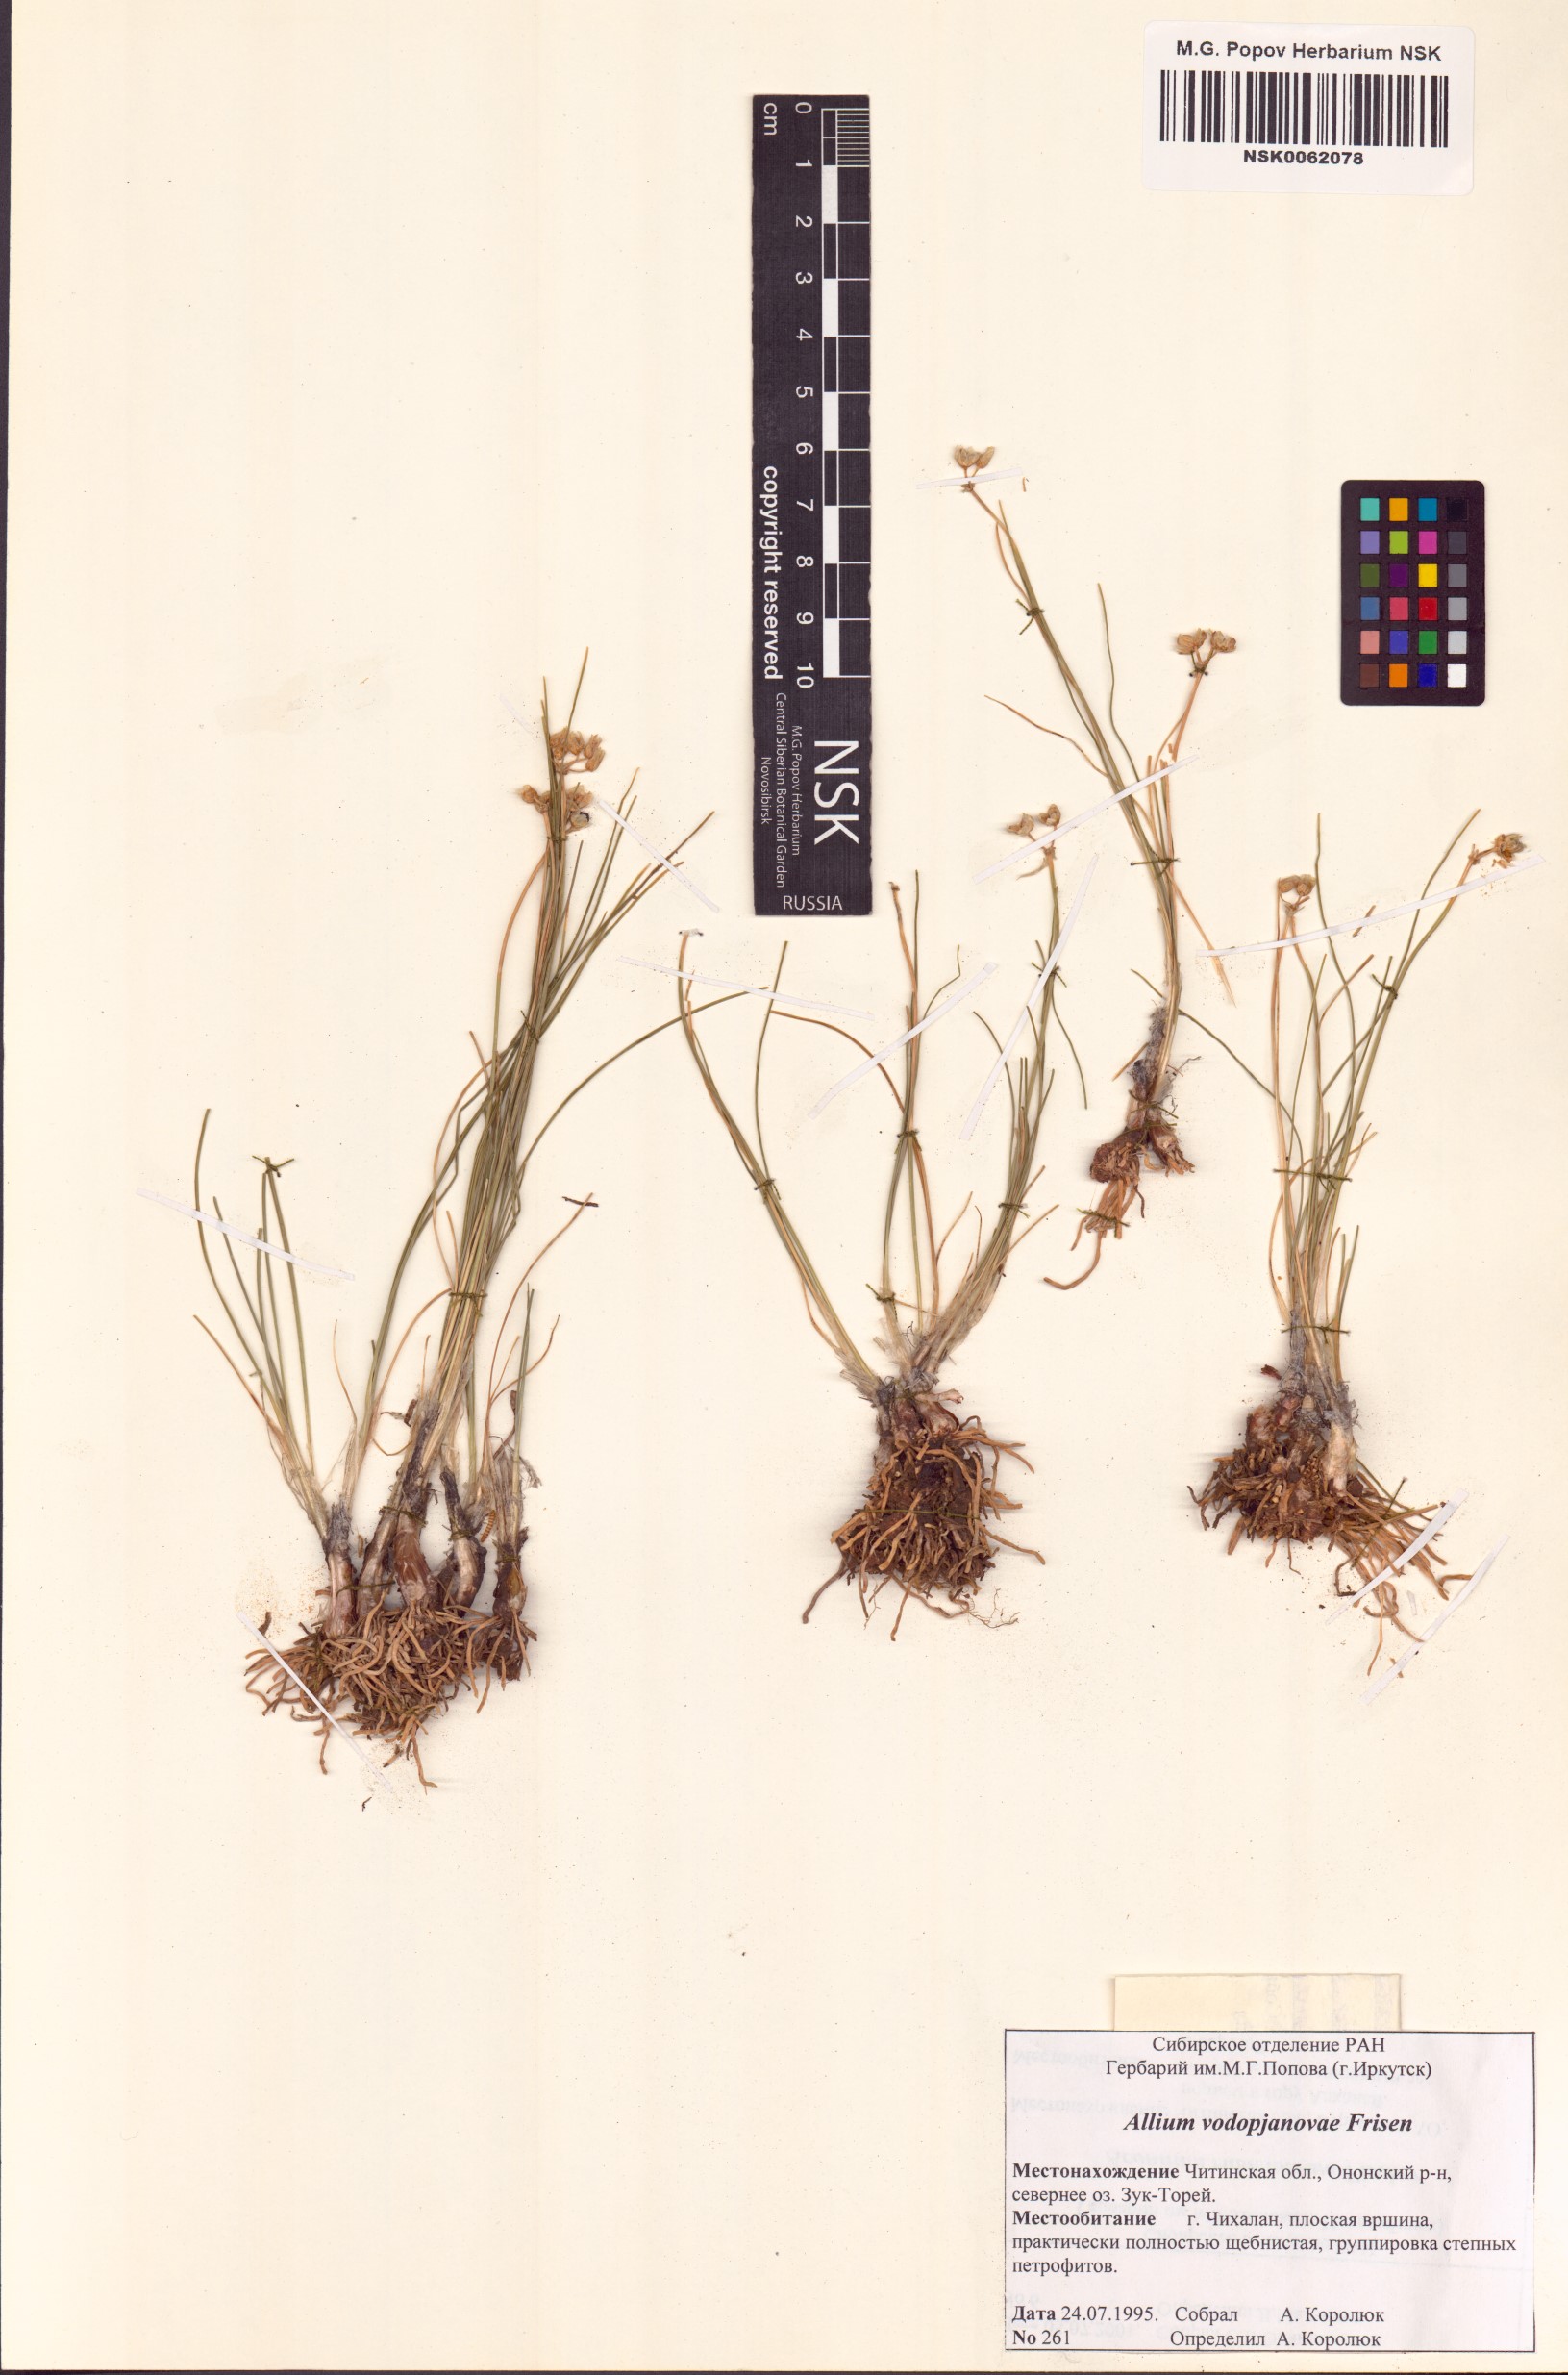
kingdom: Plantae
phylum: Tracheophyta
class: Liliopsida
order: Asparagales
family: Amaryllidaceae
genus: Allium
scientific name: Allium vodopjanovae
